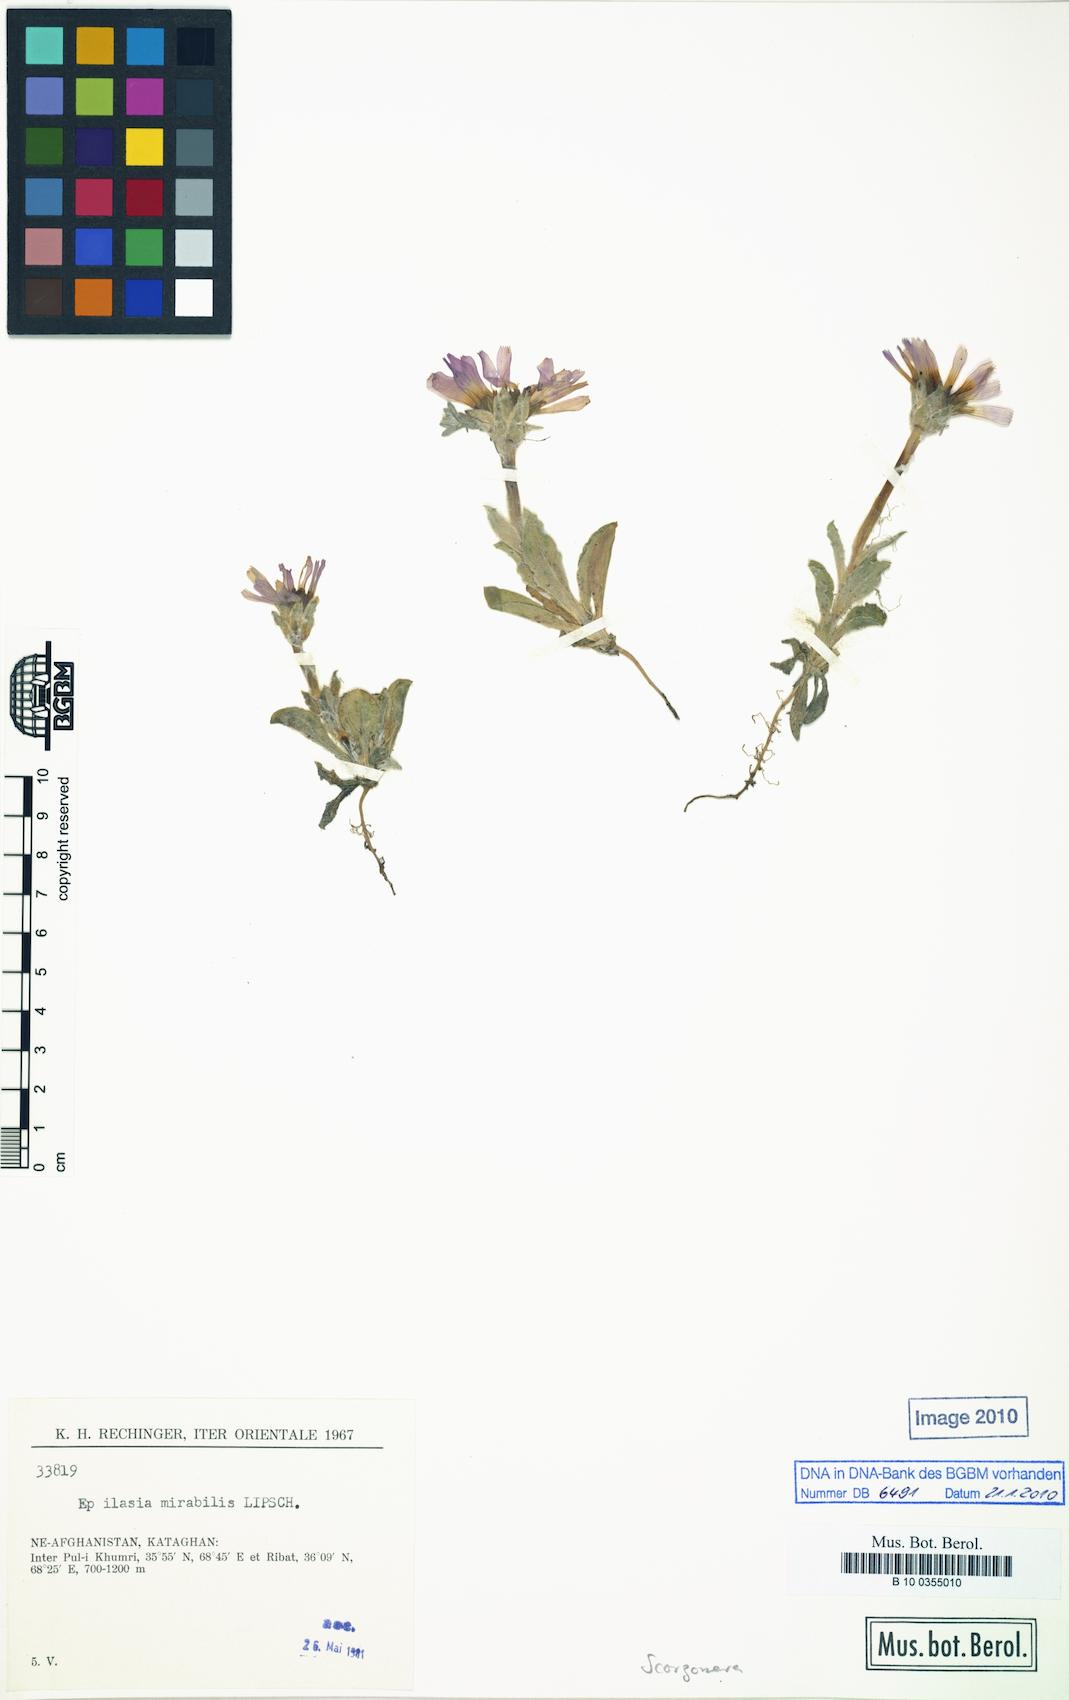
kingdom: Plantae
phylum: Tracheophyta
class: Magnoliopsida
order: Asterales
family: Asteraceae
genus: Guneria
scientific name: Guneria mirabilis
